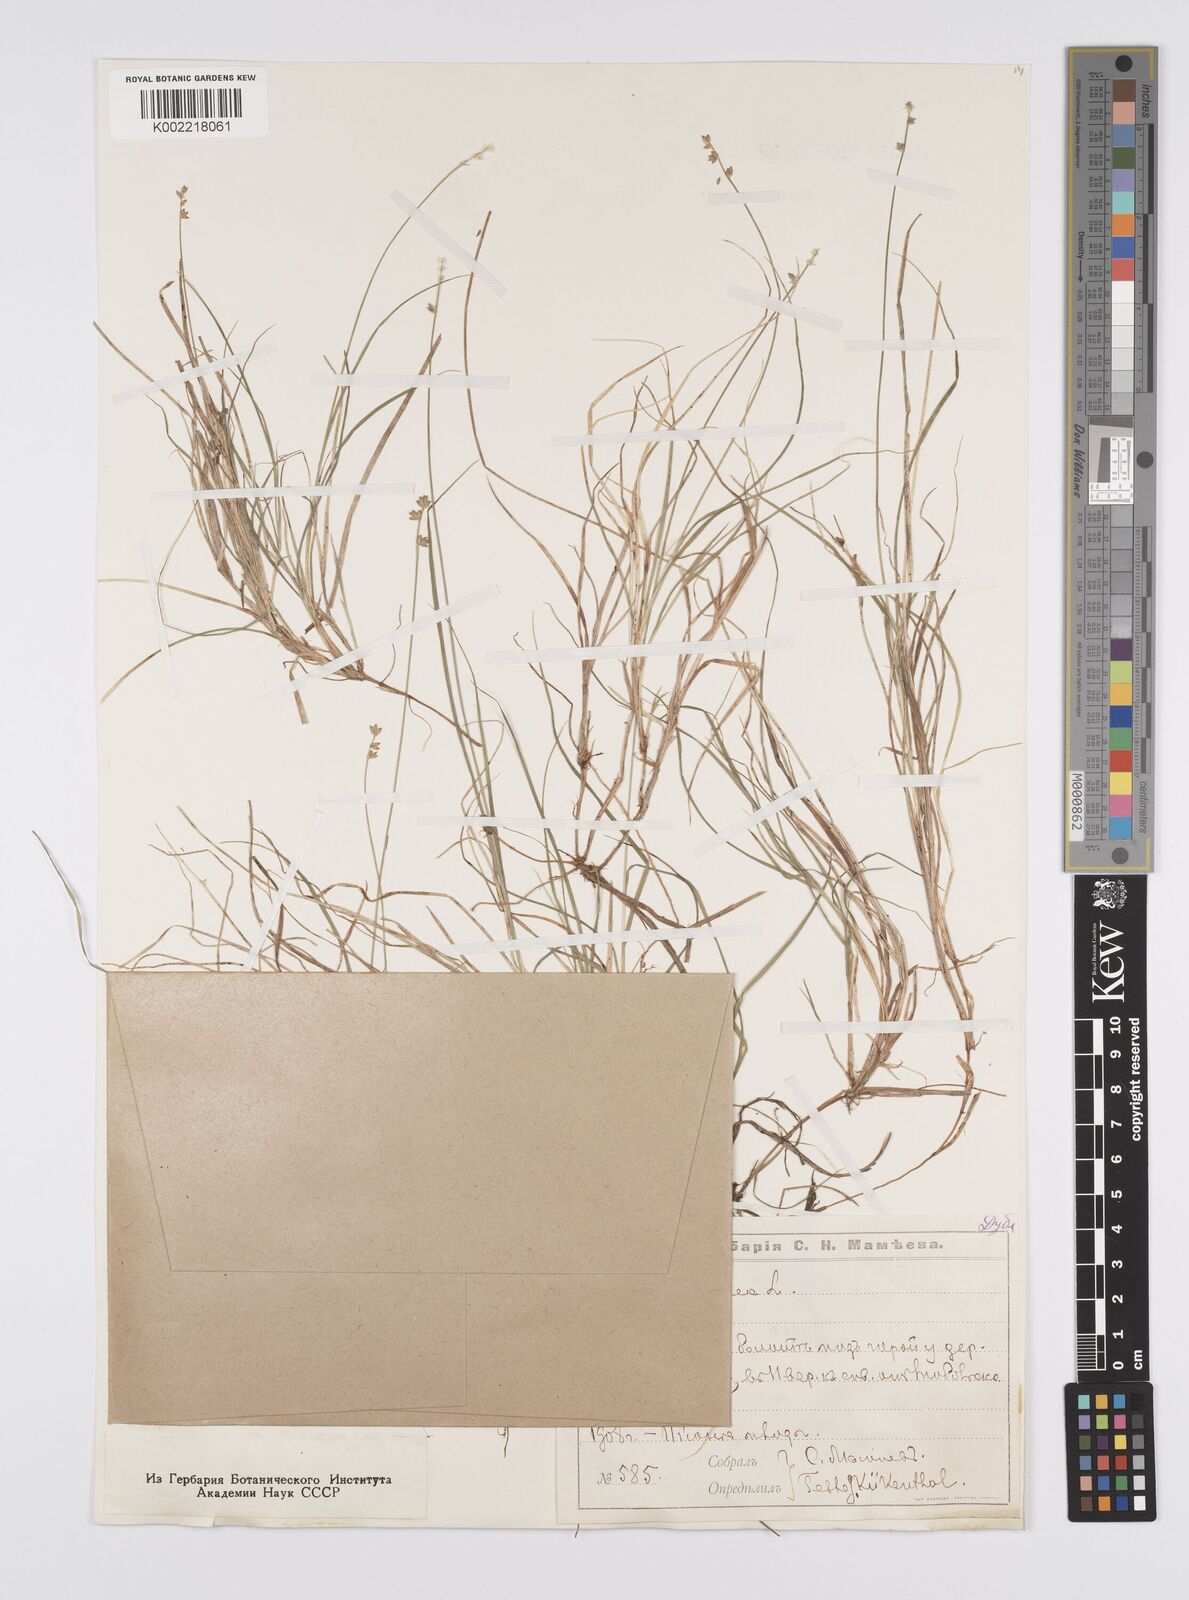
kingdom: Plantae
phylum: Tracheophyta
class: Liliopsida
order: Poales
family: Cyperaceae
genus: Carex
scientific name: Carex loliacea
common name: Ryegrass sedge
